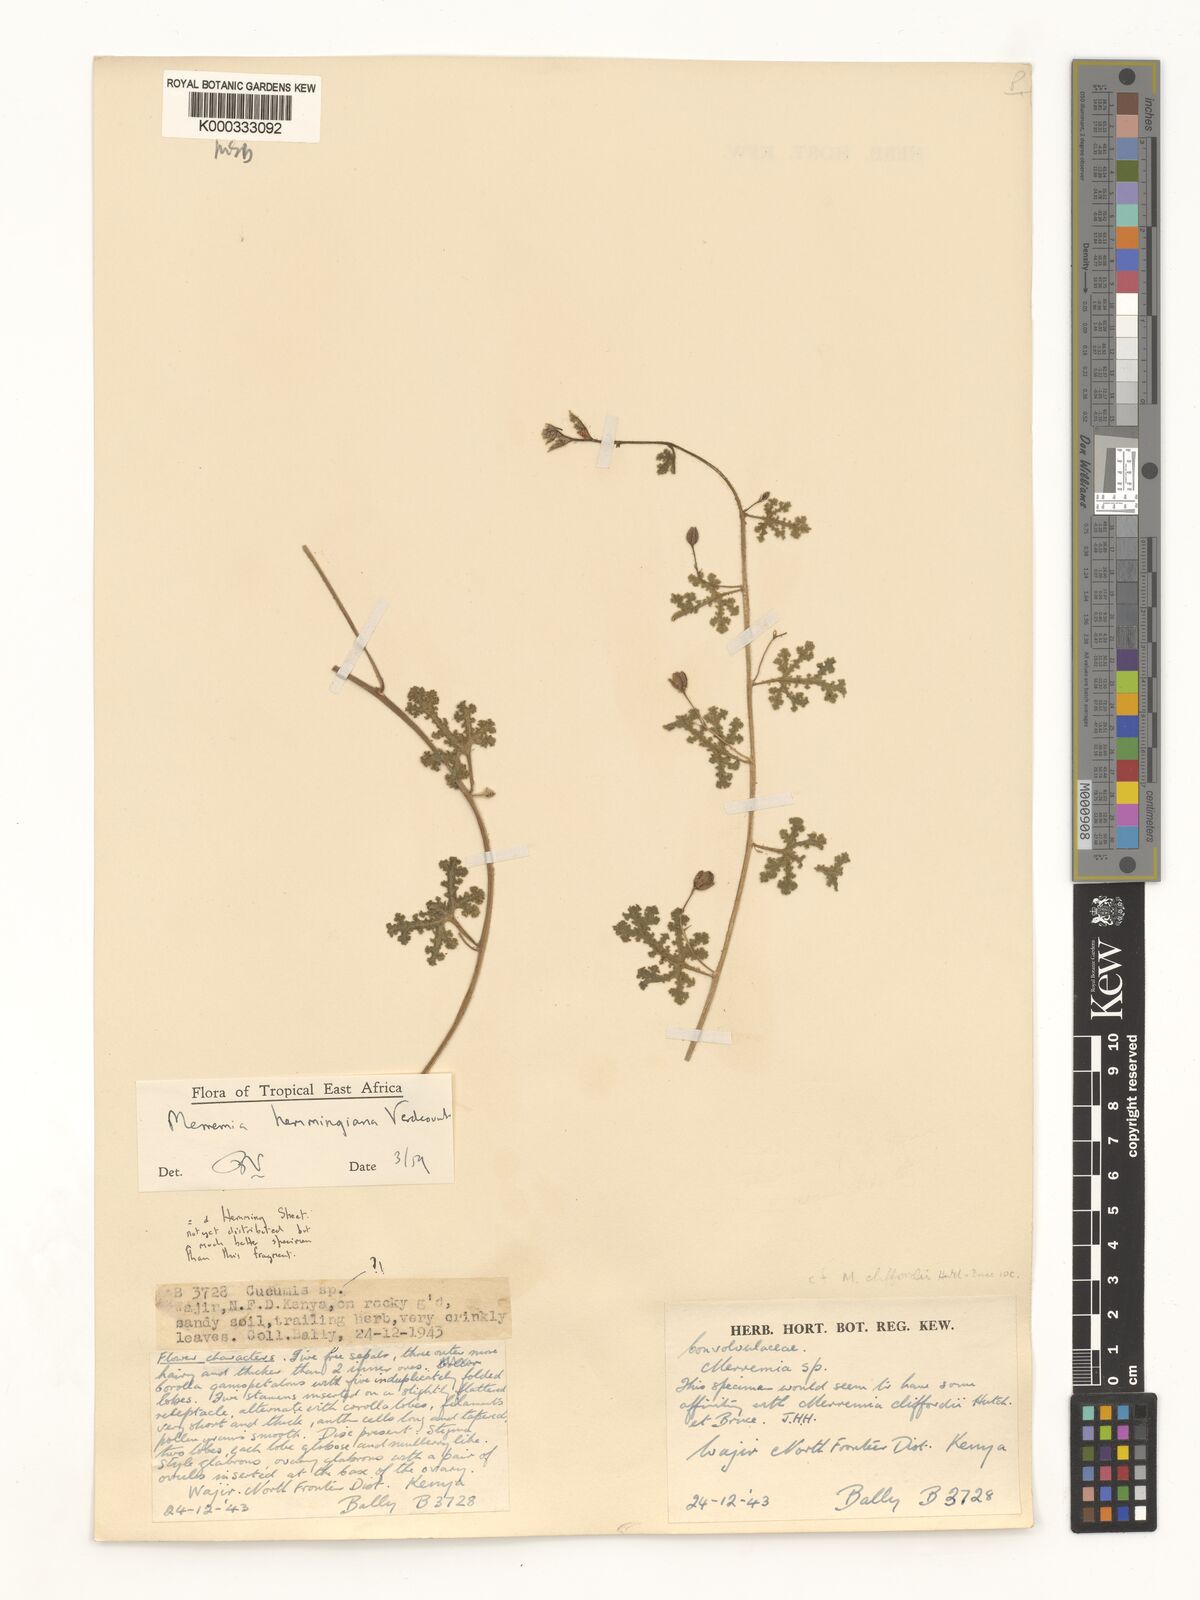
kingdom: Plantae
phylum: Tracheophyta
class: Magnoliopsida
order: Solanales
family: Convolvulaceae
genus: Merremia
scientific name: Merremia hemmingiana
